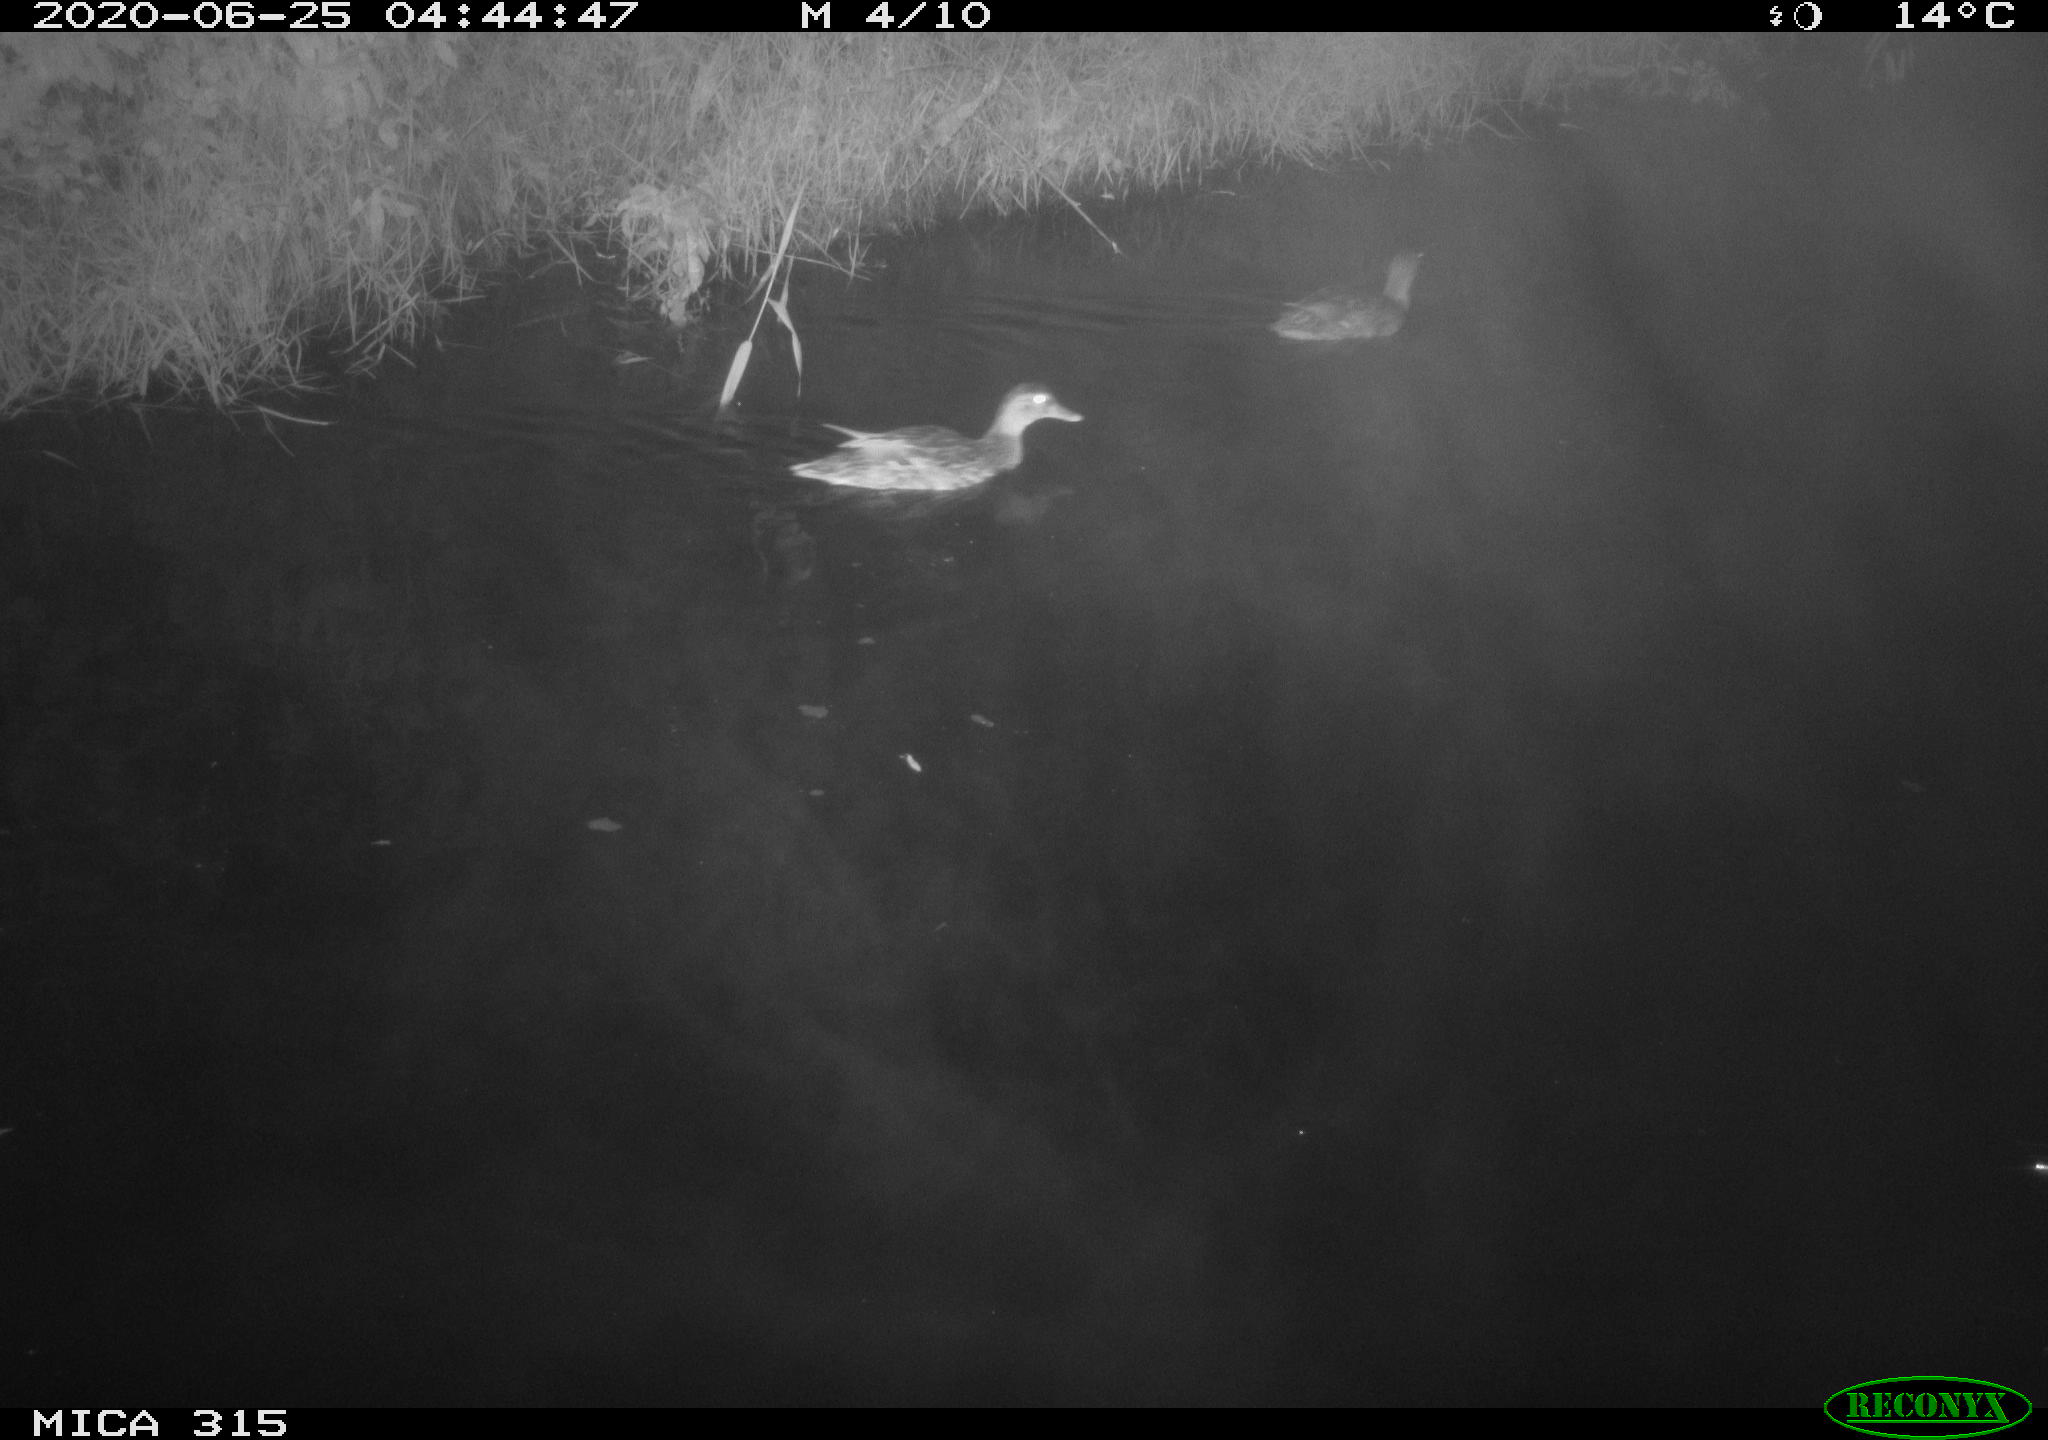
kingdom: Animalia
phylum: Chordata
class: Aves
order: Anseriformes
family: Anatidae
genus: Anas
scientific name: Anas platyrhynchos
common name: Mallard
